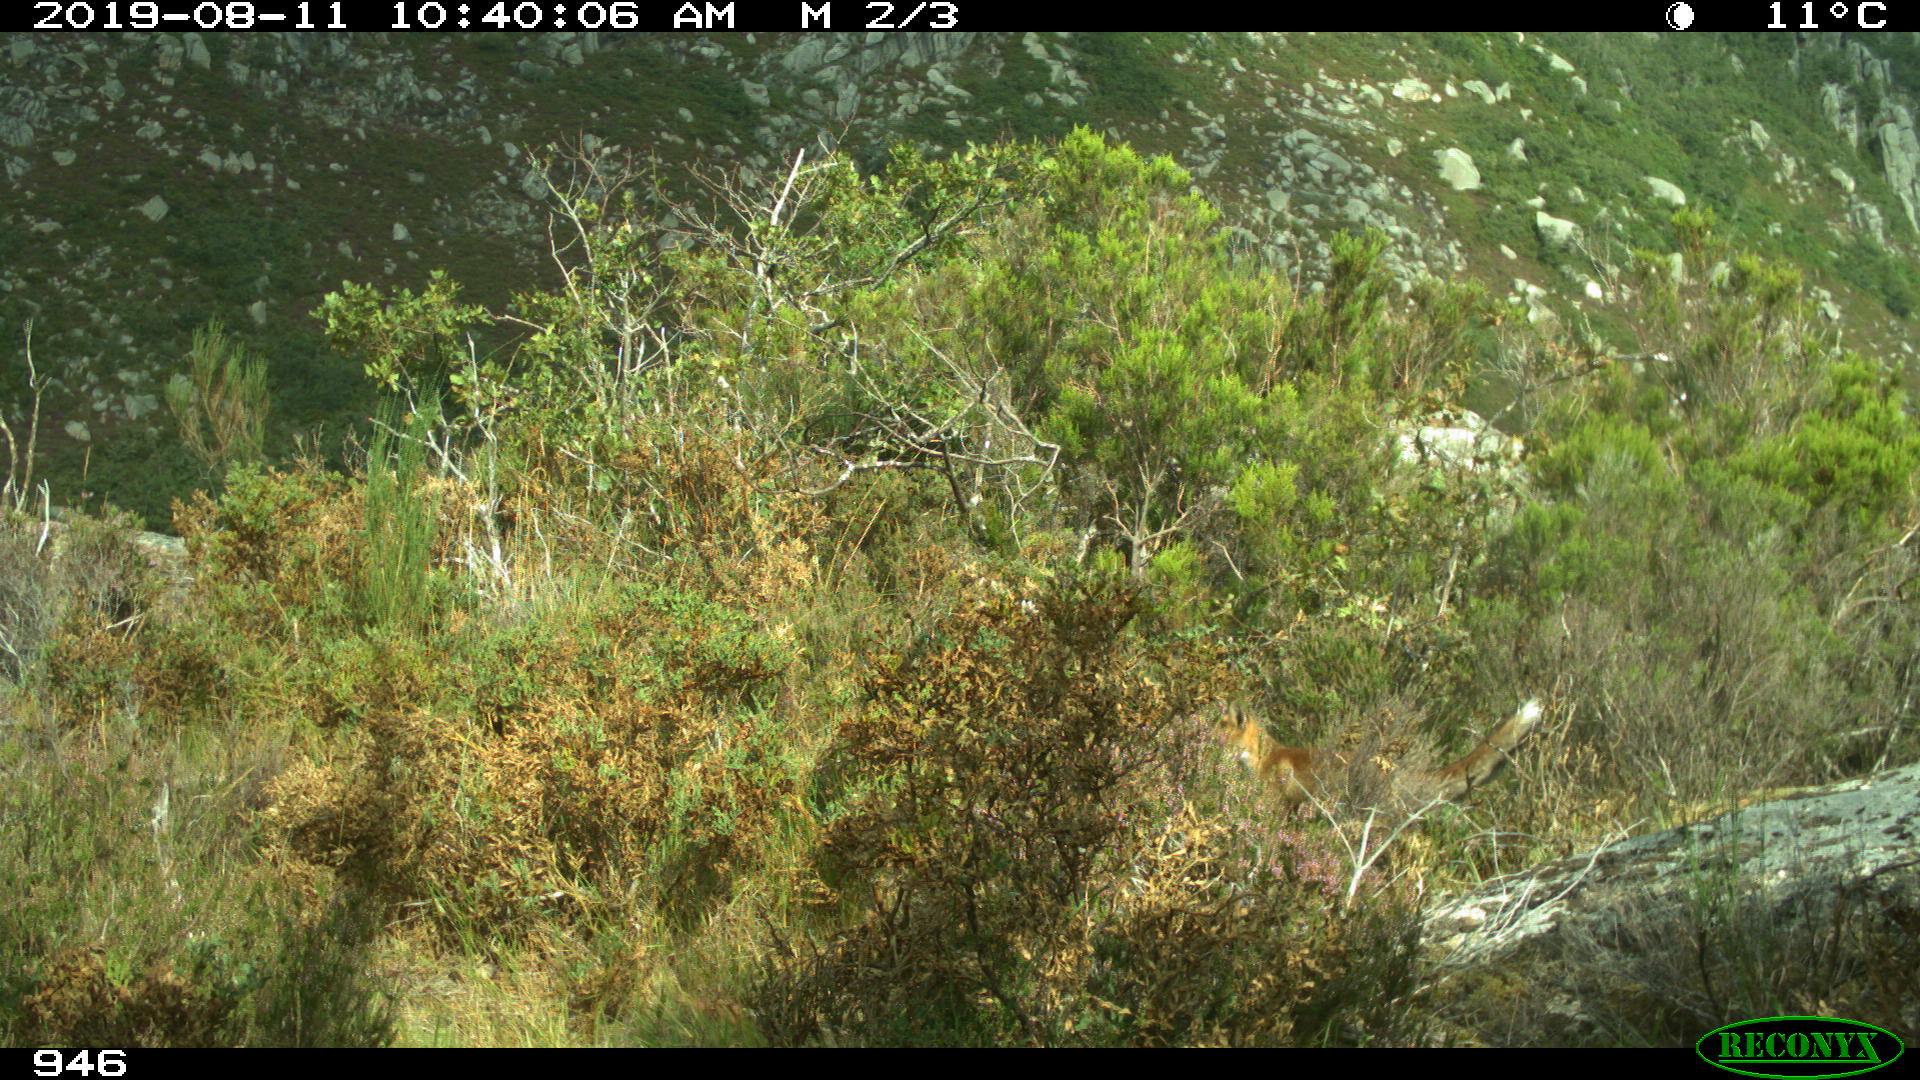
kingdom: Animalia
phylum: Chordata
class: Mammalia
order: Carnivora
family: Canidae
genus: Vulpes
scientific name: Vulpes vulpes
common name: Red fox
